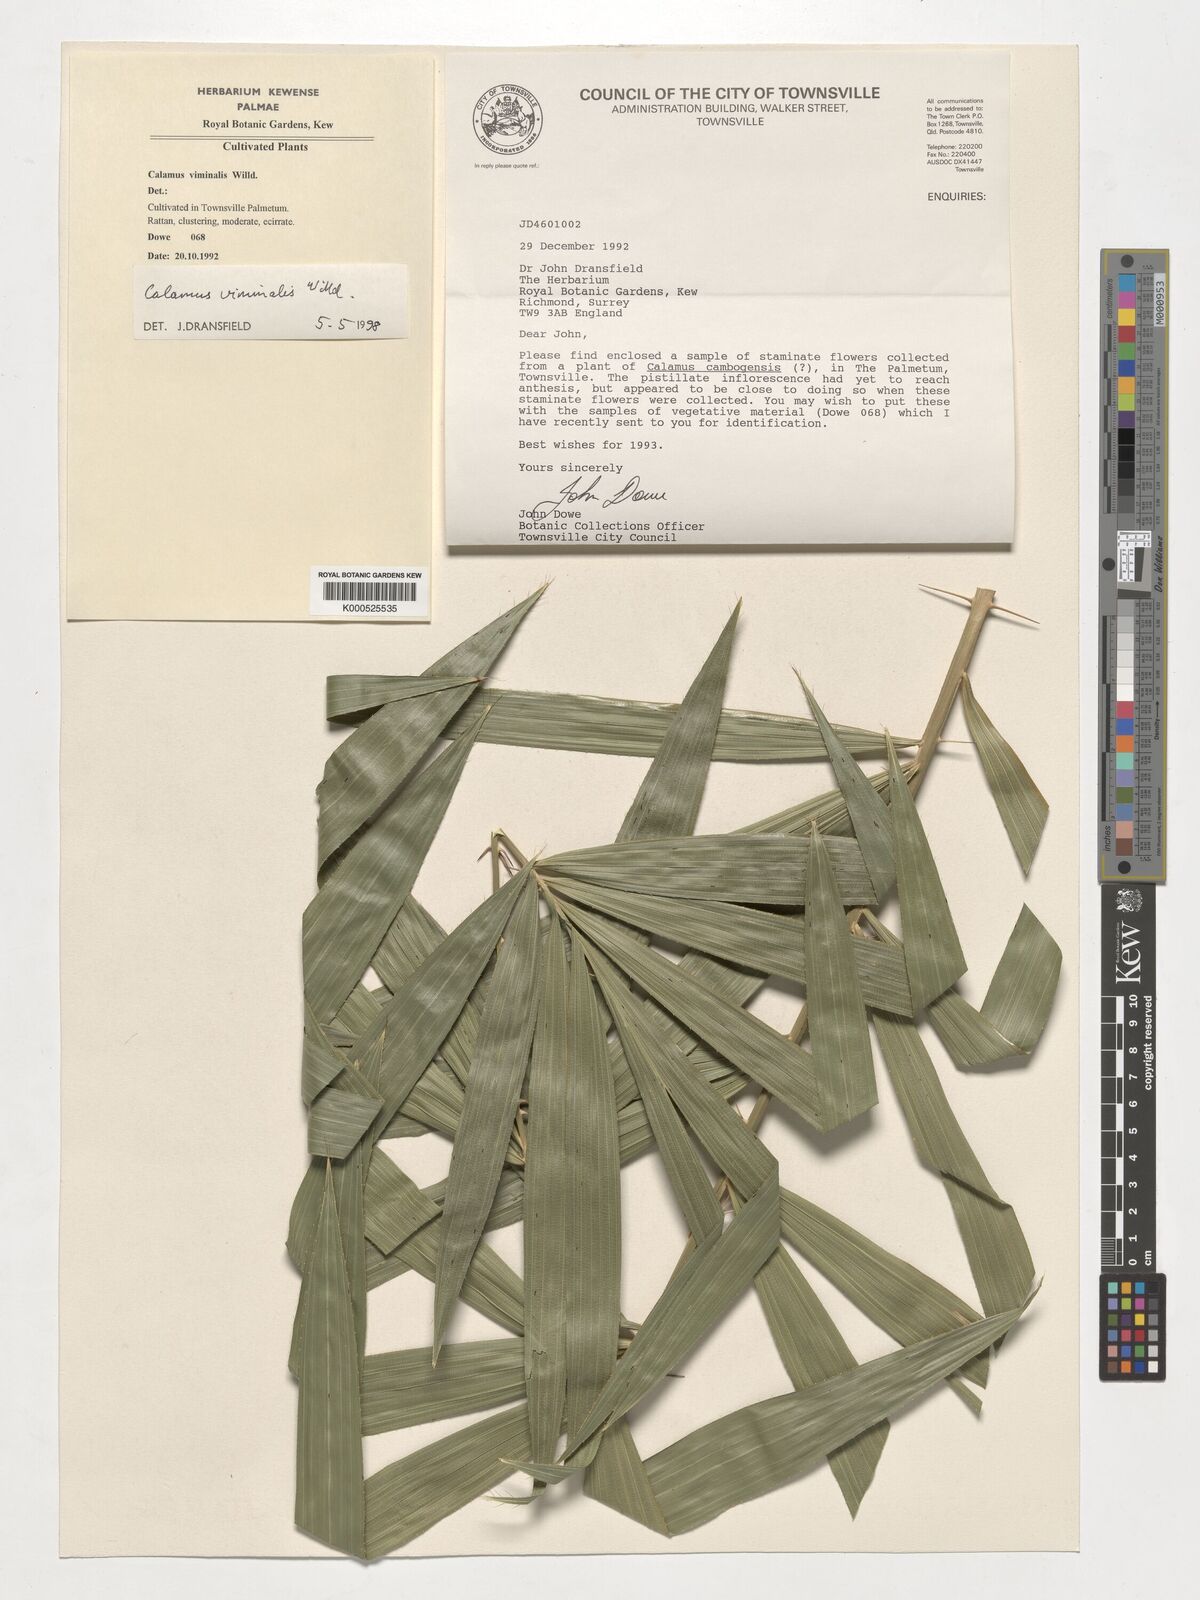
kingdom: Plantae
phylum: Tracheophyta
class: Liliopsida
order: Arecales
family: Arecaceae
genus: Calamus
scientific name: Calamus viminalis
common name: Osier-like rattan palm
